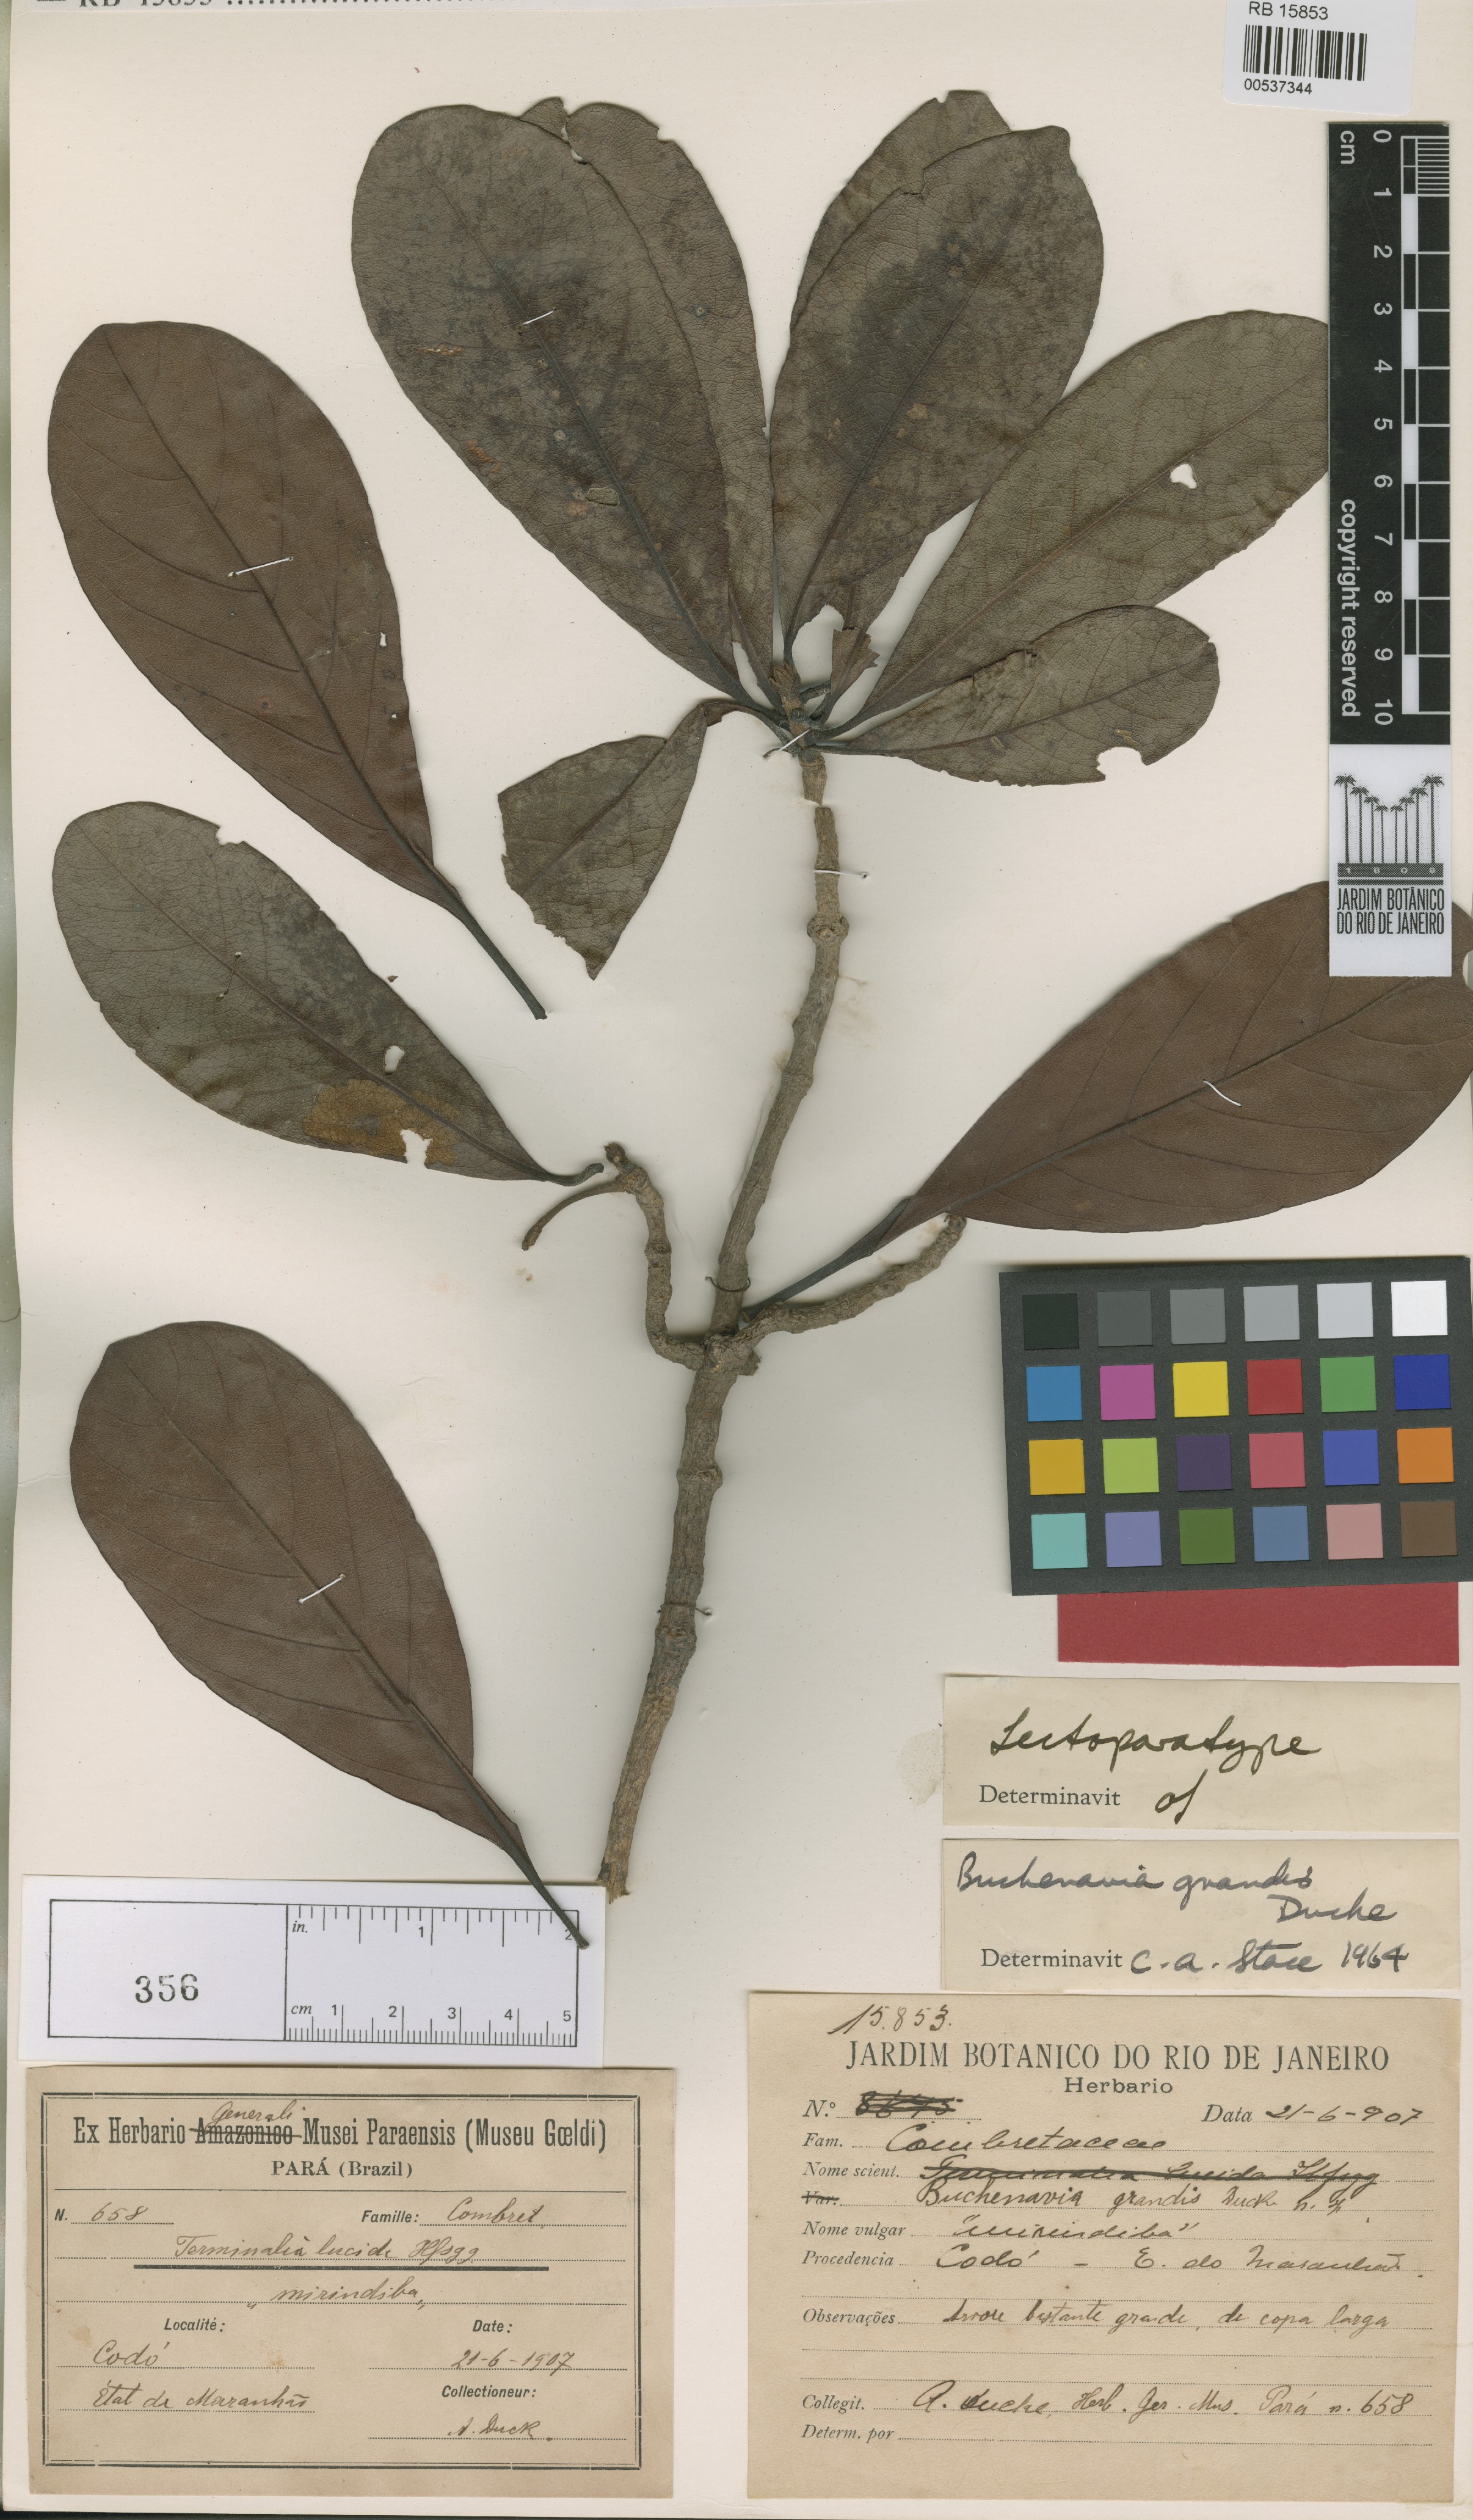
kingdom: Plantae
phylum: Tracheophyta
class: Magnoliopsida
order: Myrtales
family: Combretaceae
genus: Terminalia
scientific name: Terminalia grandis
